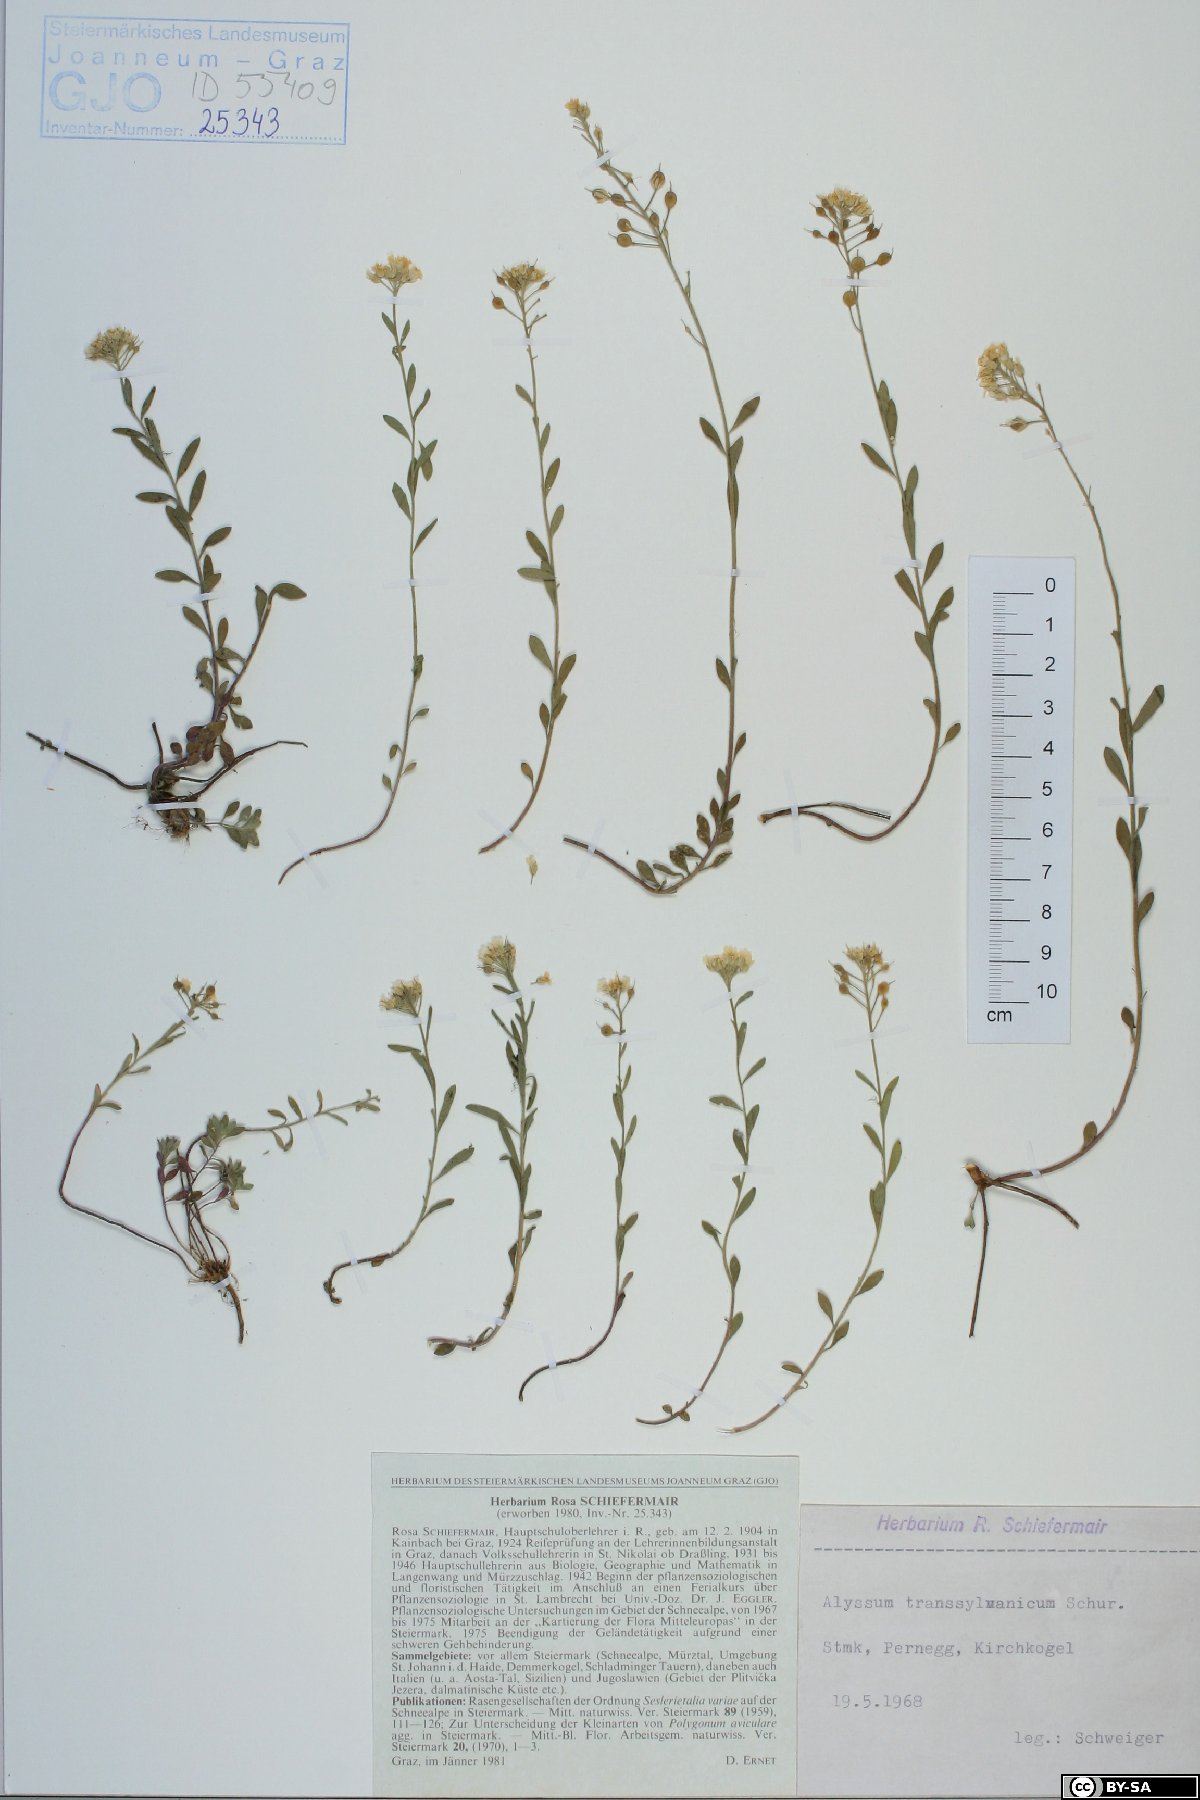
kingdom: Plantae
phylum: Tracheophyta
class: Magnoliopsida
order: Brassicales
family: Brassicaceae
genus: Alyssum
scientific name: Alyssum repens
